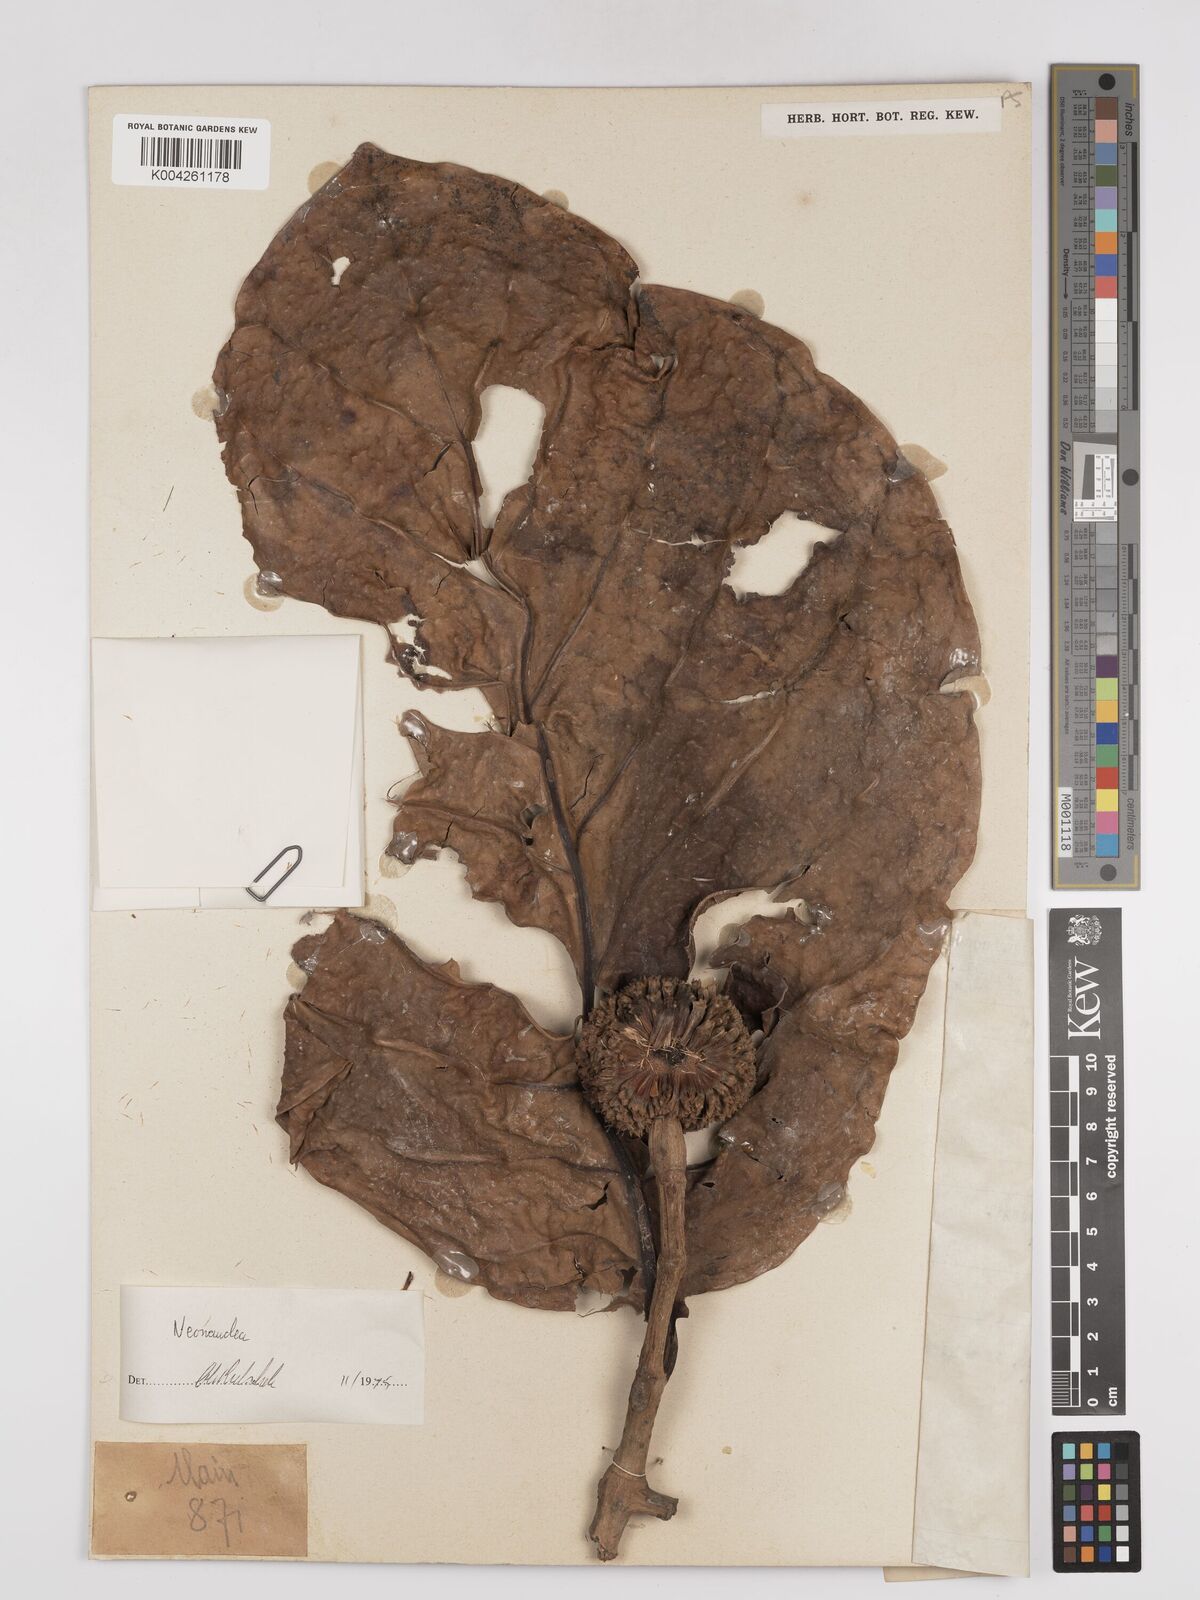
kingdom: Plantae
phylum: Tracheophyta
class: Magnoliopsida
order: Gentianales
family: Rubiaceae
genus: Neonauclea
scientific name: Neonauclea
